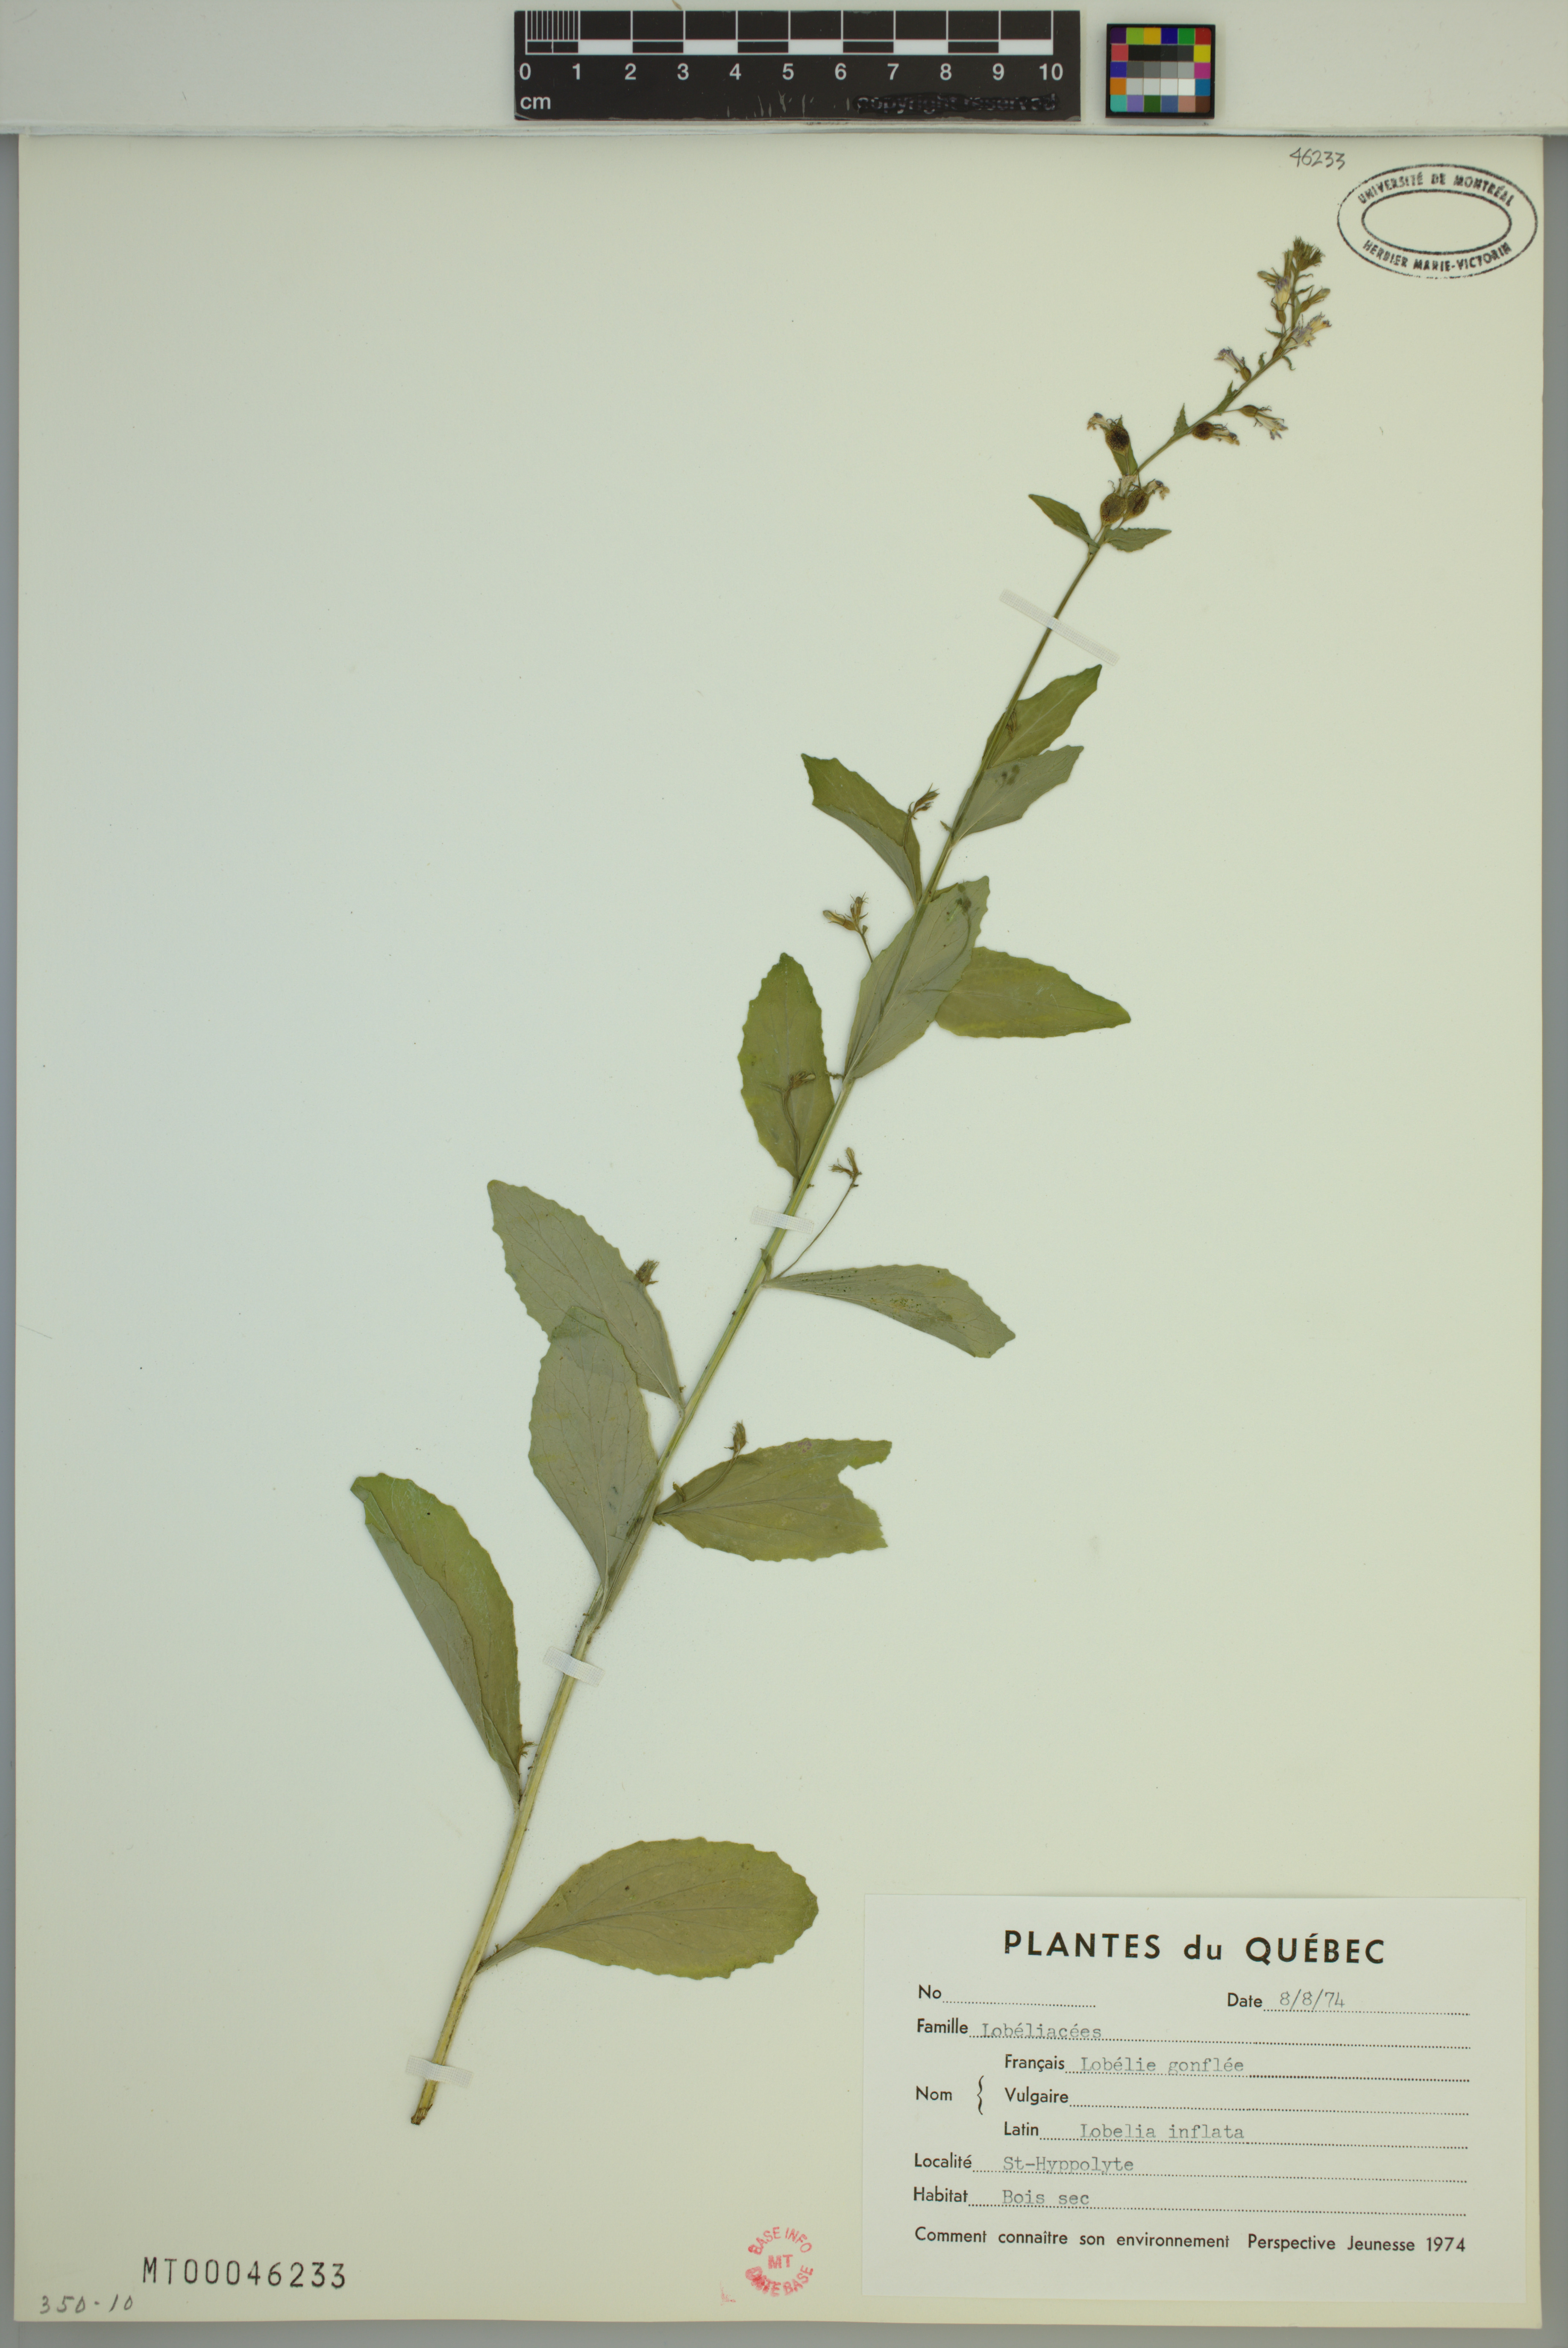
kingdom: Plantae
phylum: Tracheophyta
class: Magnoliopsida
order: Asterales
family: Campanulaceae
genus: Lobelia
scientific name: Lobelia inflata
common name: Indian tobacco
